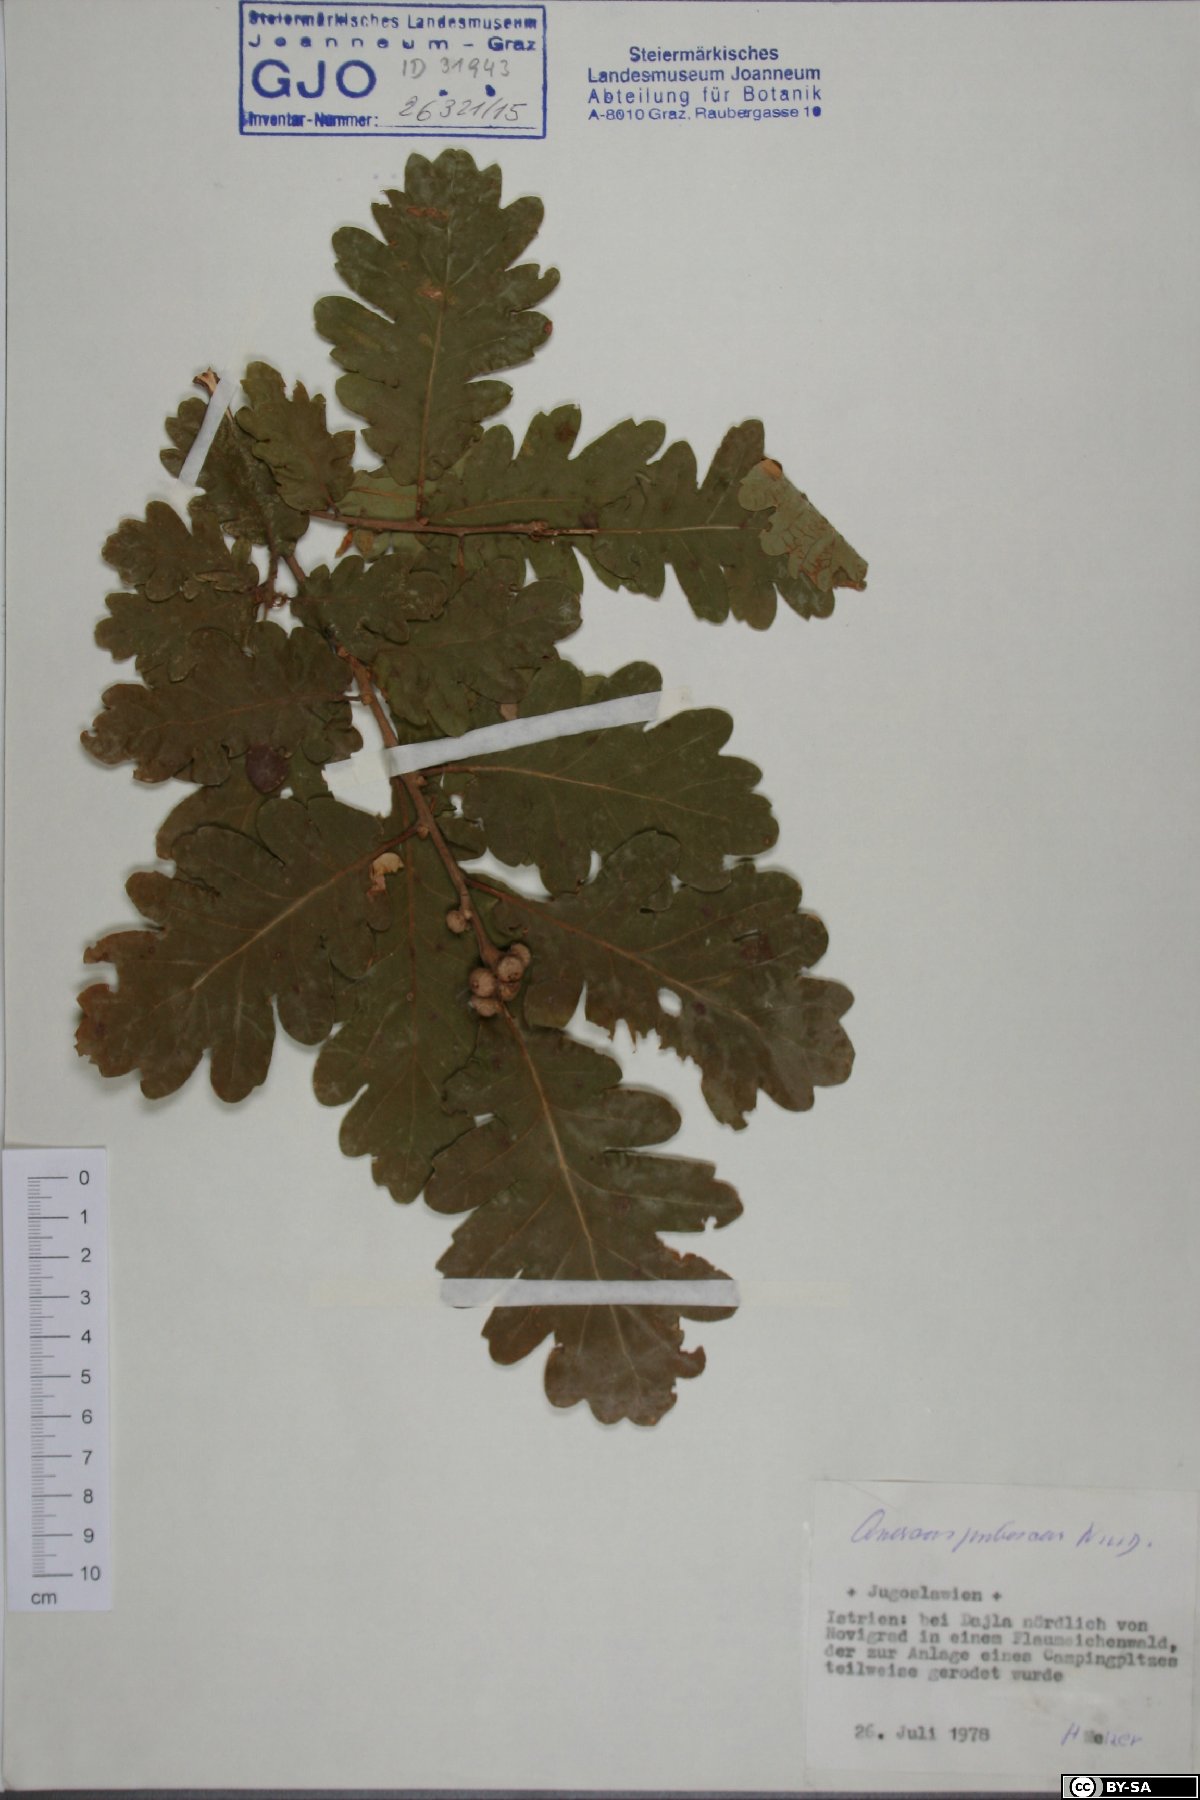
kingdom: Plantae
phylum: Tracheophyta
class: Magnoliopsida
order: Fagales
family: Fagaceae
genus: Quercus
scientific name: Quercus pubescens
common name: Downy oak
